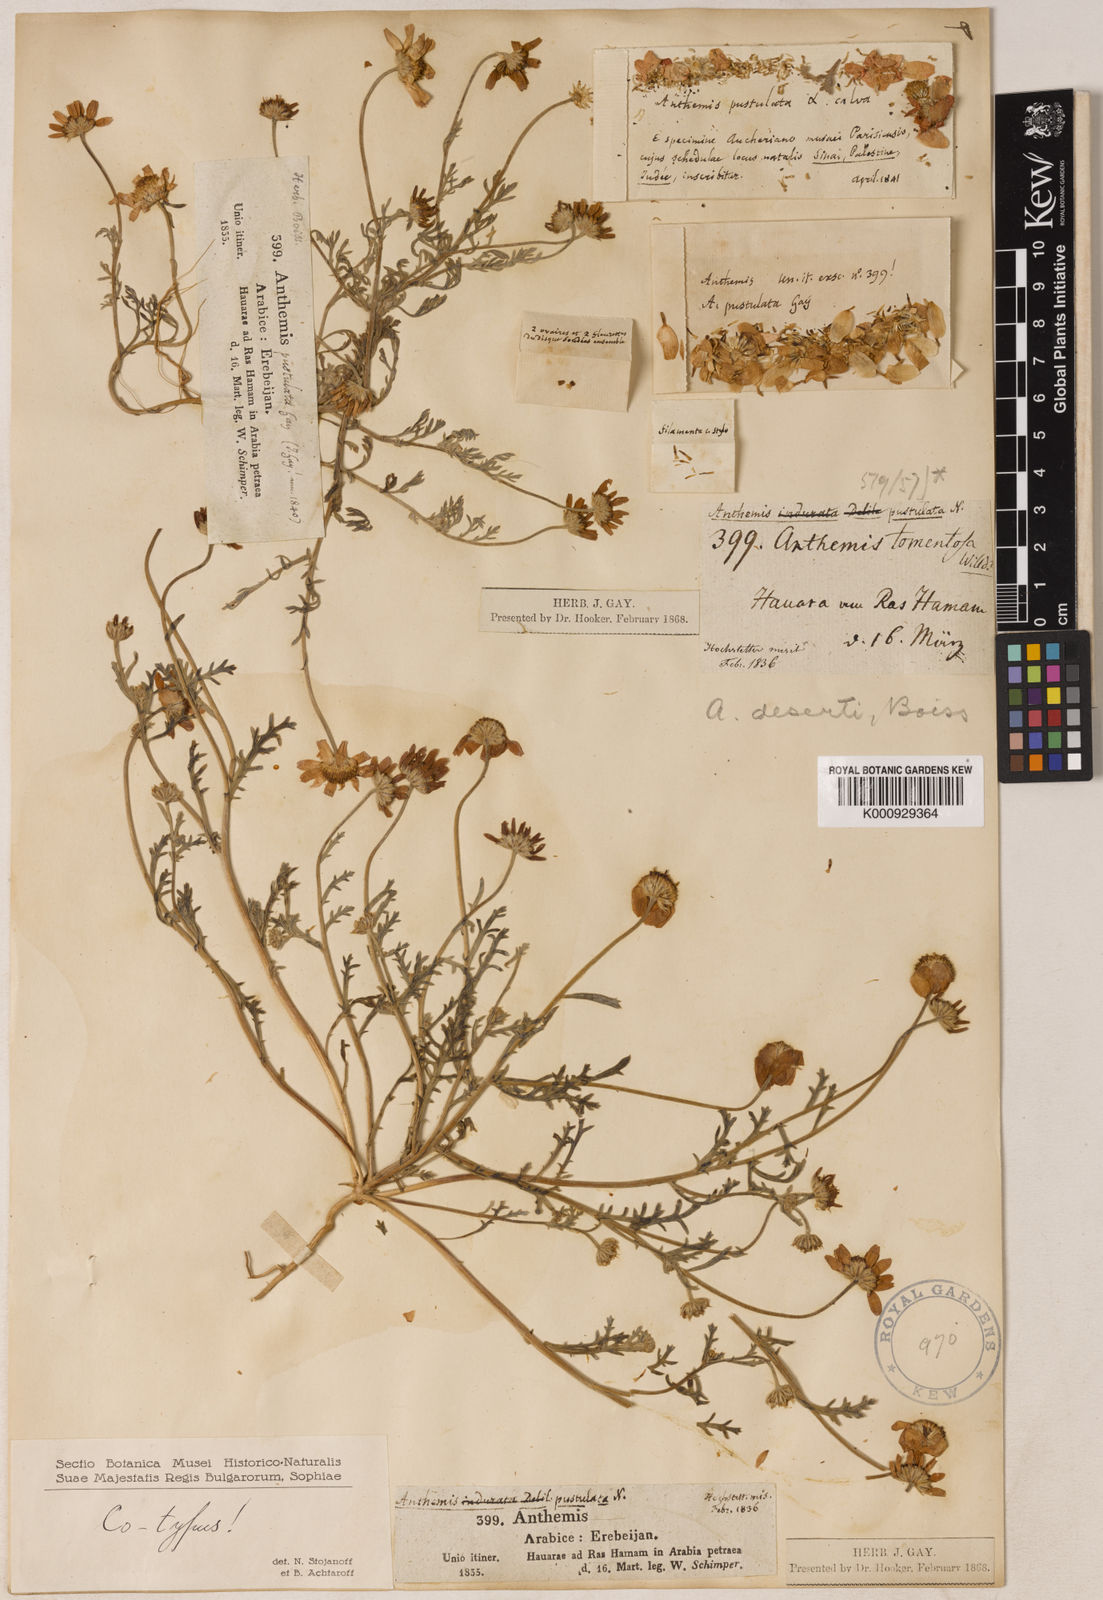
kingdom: Plantae
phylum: Tracheophyta
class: Magnoliopsida
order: Asterales
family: Asteraceae
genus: Anthemis
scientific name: Anthemis melampodina
